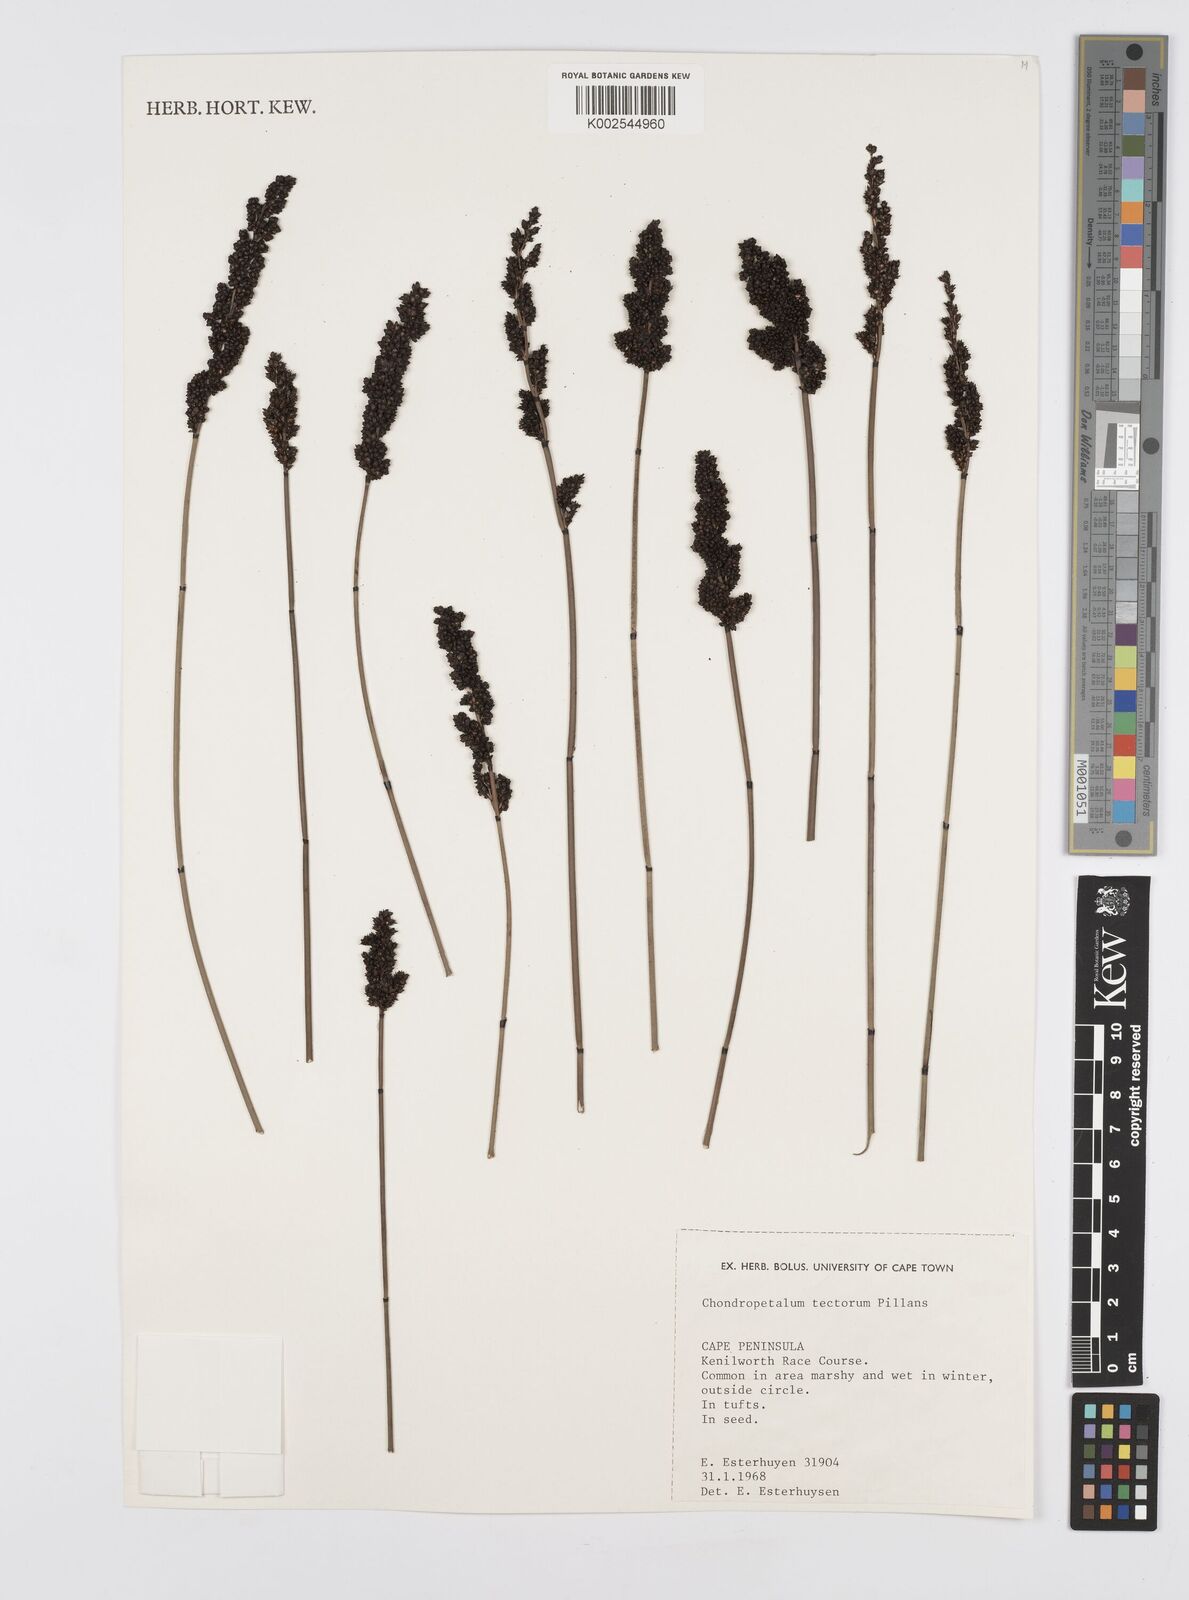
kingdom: Plantae
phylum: Tracheophyta
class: Liliopsida
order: Poales
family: Restionaceae
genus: Elegia
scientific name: Elegia tectorum
